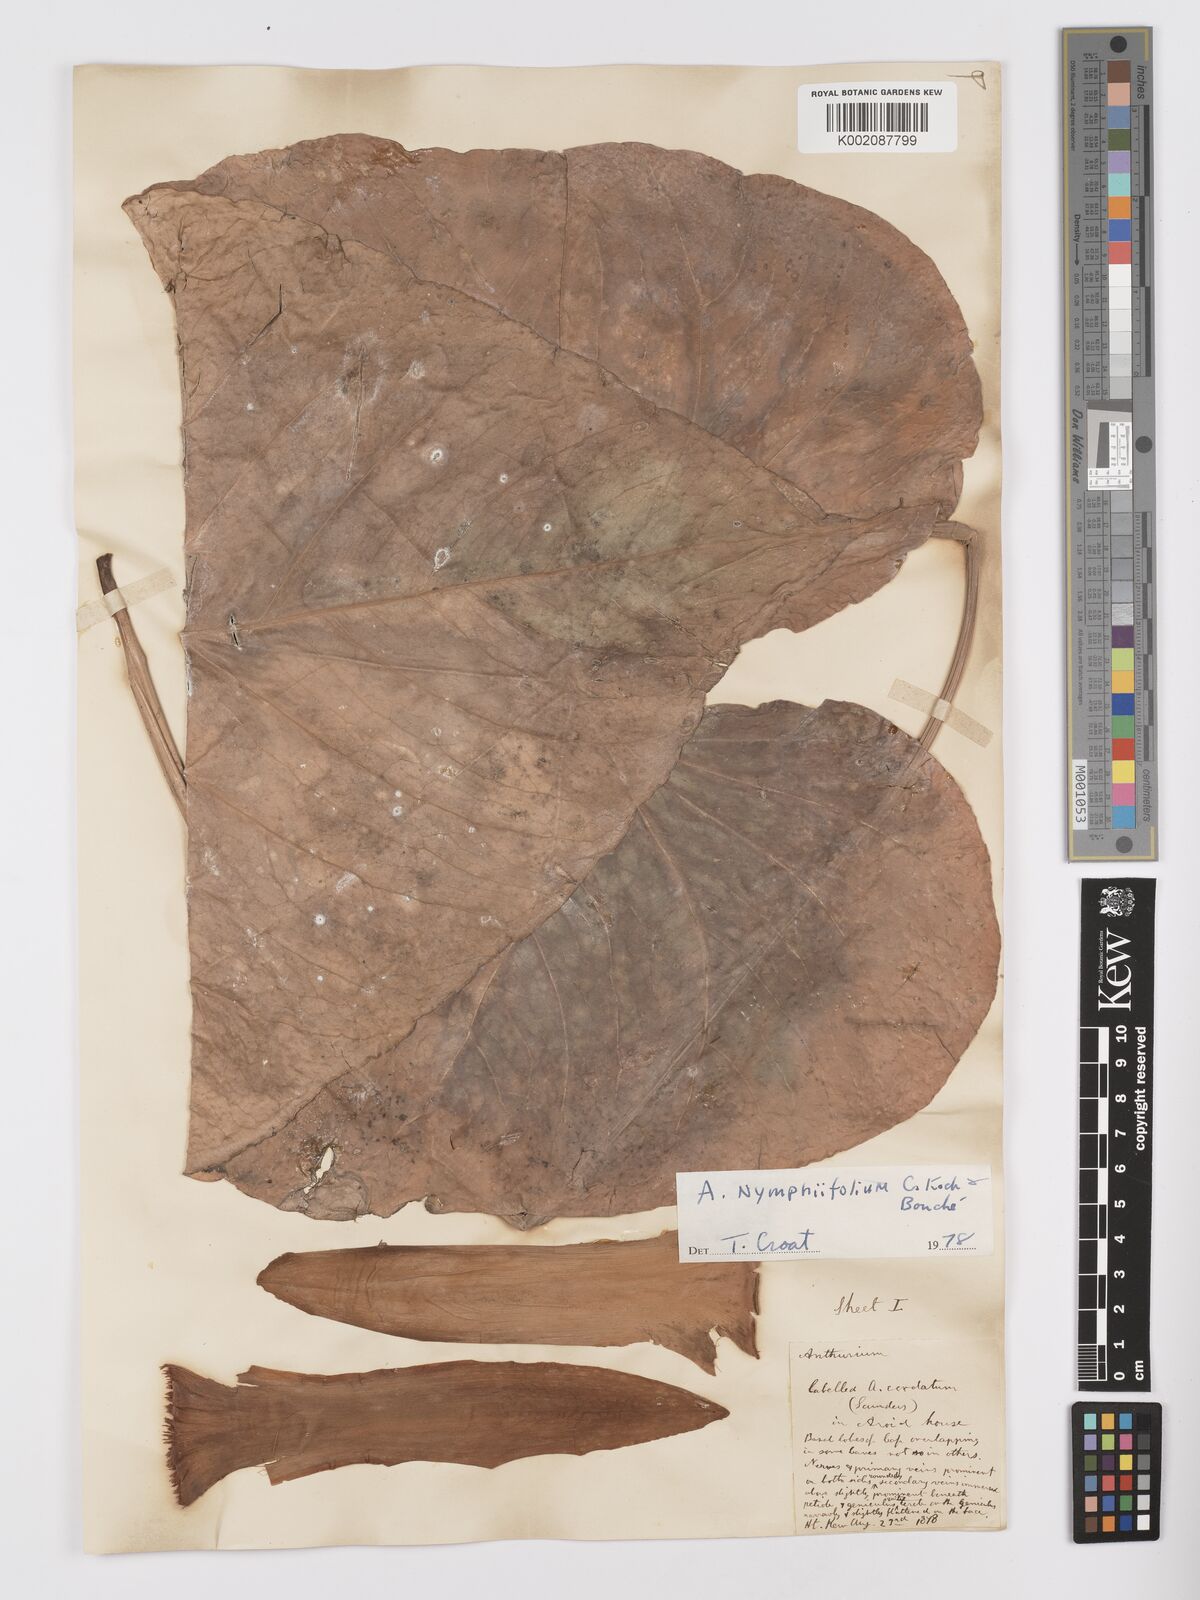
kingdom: Plantae
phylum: Tracheophyta
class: Liliopsida
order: Alismatales
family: Araceae
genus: Anthurium
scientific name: Anthurium nymphaeifolium
